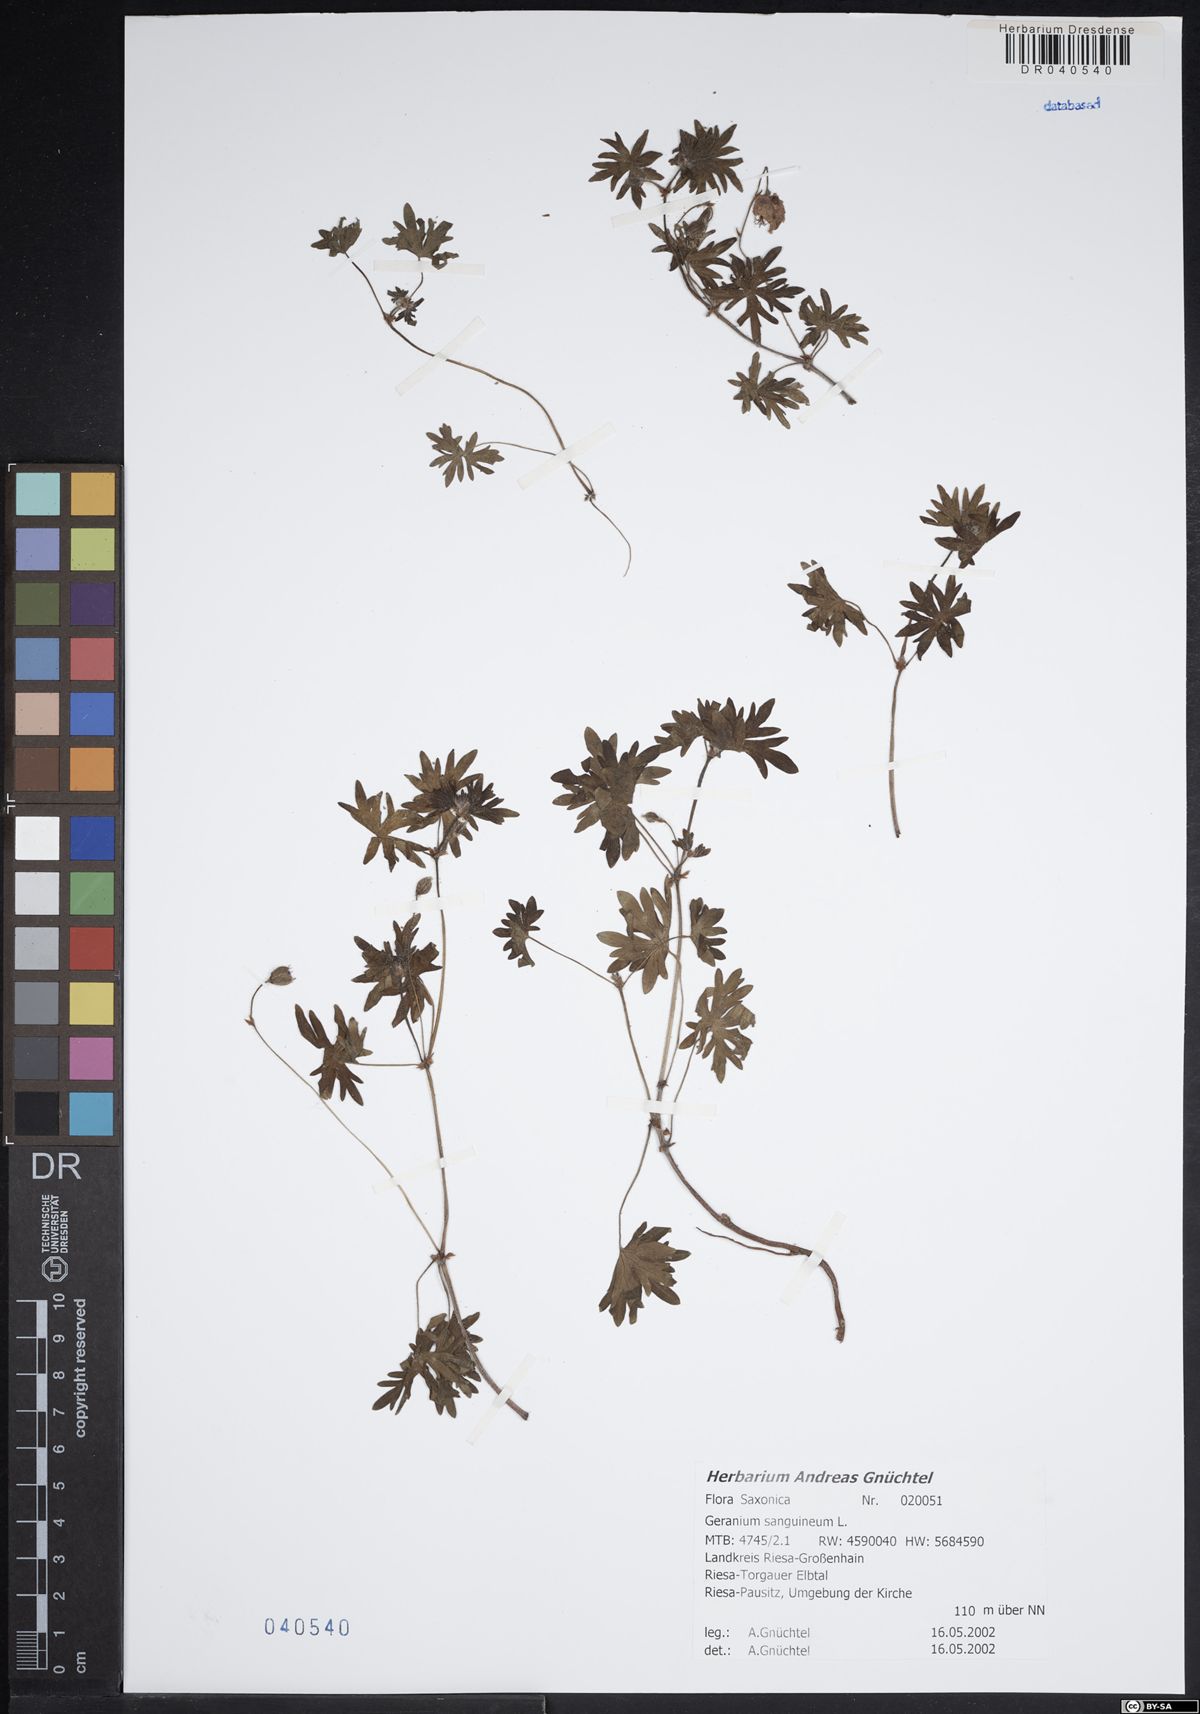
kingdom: Plantae
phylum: Tracheophyta
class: Magnoliopsida
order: Geraniales
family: Geraniaceae
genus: Geranium
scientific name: Geranium sanguineum
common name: Bloody crane's-bill
